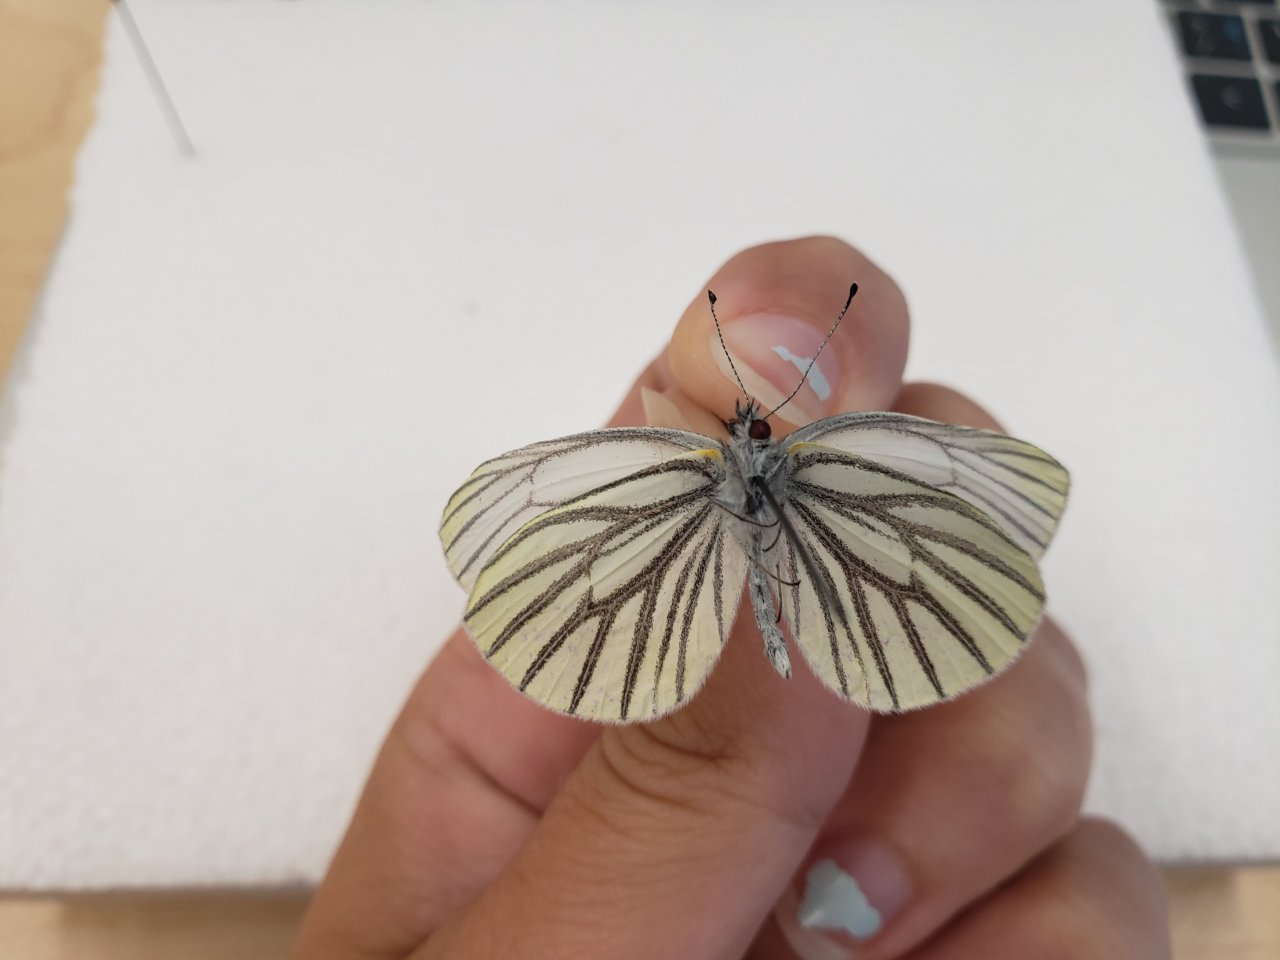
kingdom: Animalia
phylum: Arthropoda
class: Insecta
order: Lepidoptera
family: Pieridae
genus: Pieris
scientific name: Pieris oleracea
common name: Mustard White
